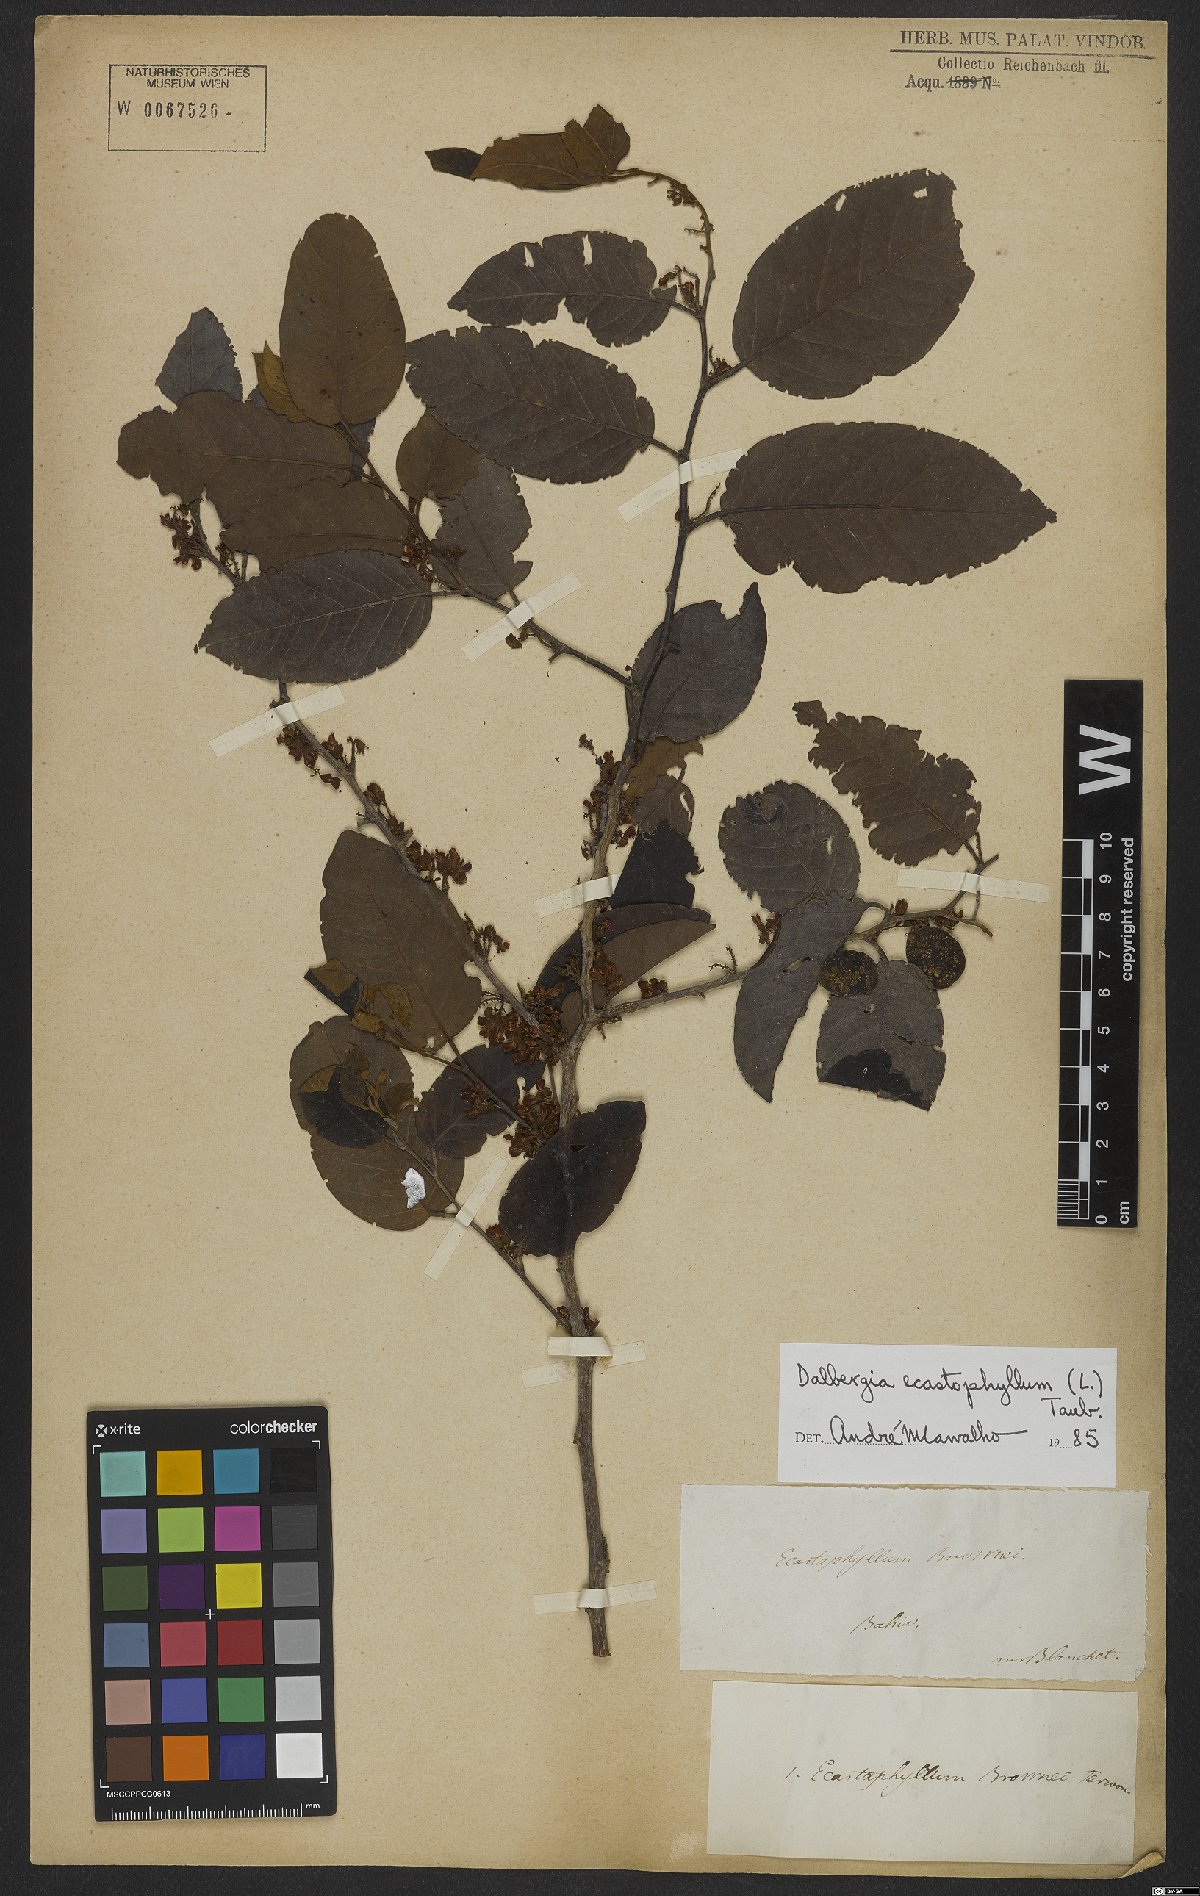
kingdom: Plantae
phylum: Tracheophyta
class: Magnoliopsida
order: Fabales
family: Fabaceae
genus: Dalbergia
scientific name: Dalbergia ecastaphyllum
